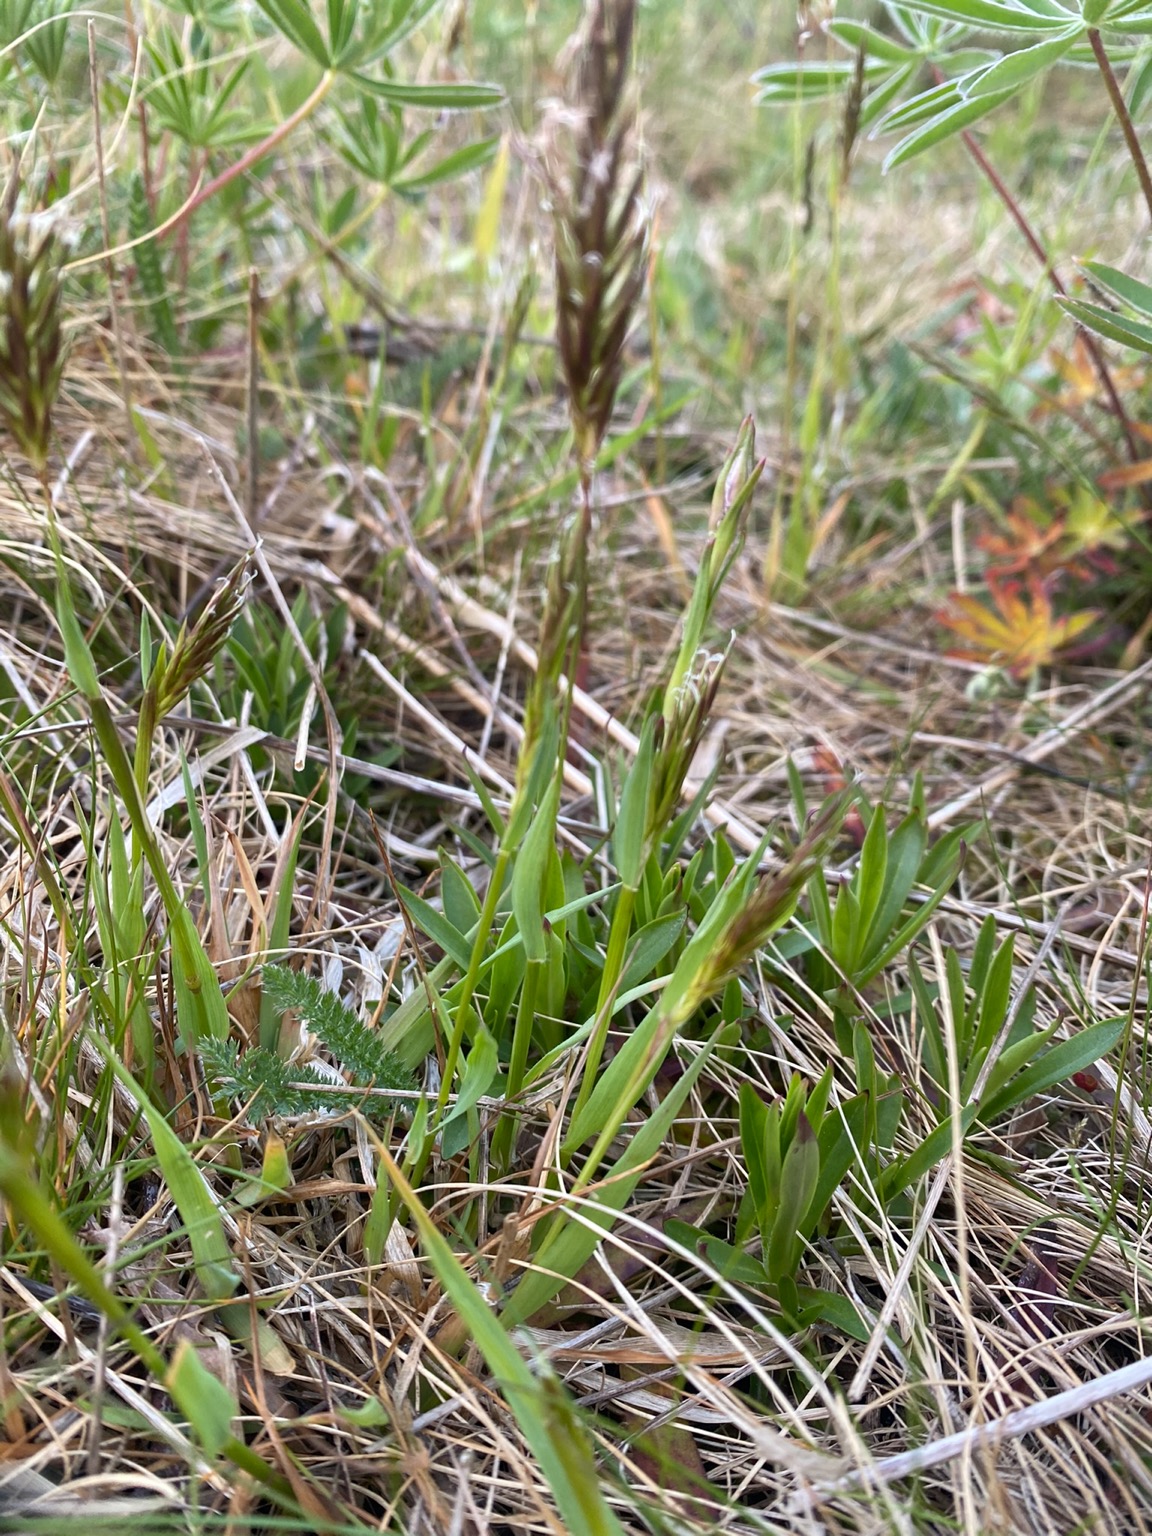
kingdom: Plantae
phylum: Tracheophyta
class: Liliopsida
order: Poales
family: Poaceae
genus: Anthoxanthum
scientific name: Anthoxanthum odoratum
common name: Vellugtende gulaks
